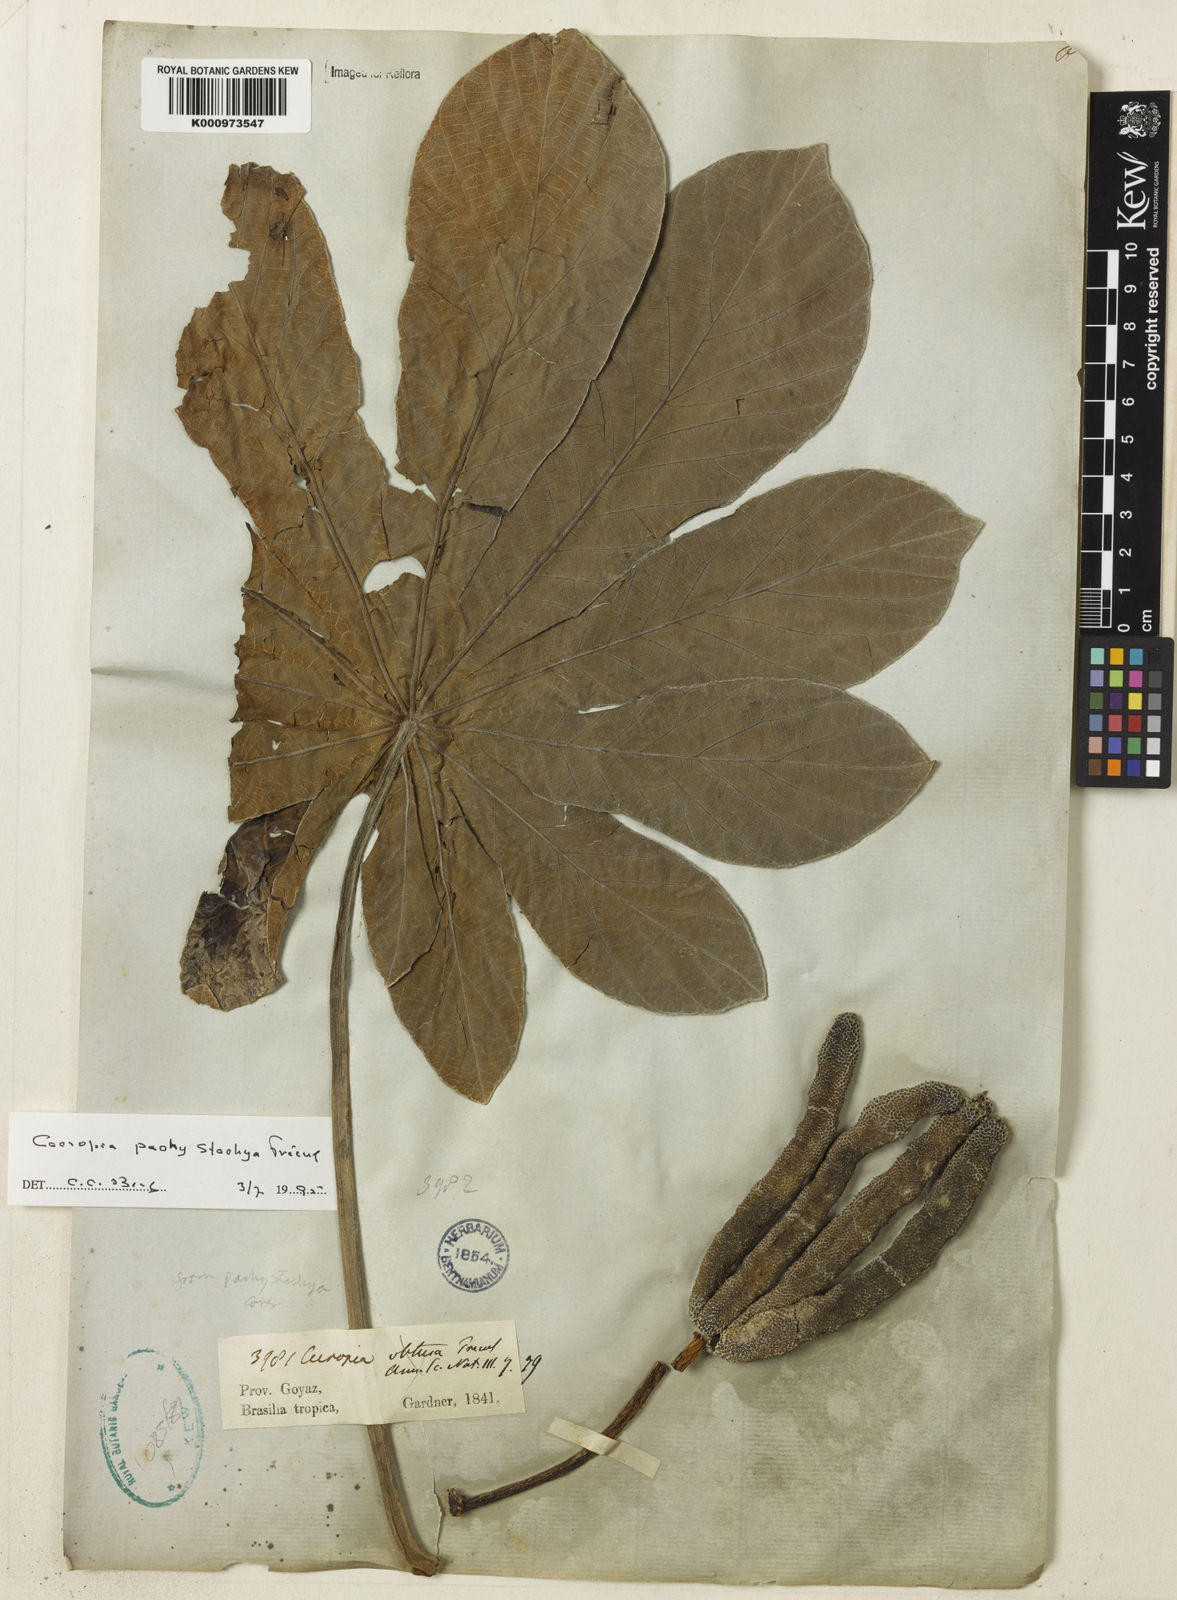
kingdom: Plantae
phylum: Tracheophyta
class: Magnoliopsida
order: Rosales
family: Urticaceae
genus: Cecropia
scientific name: Cecropia
